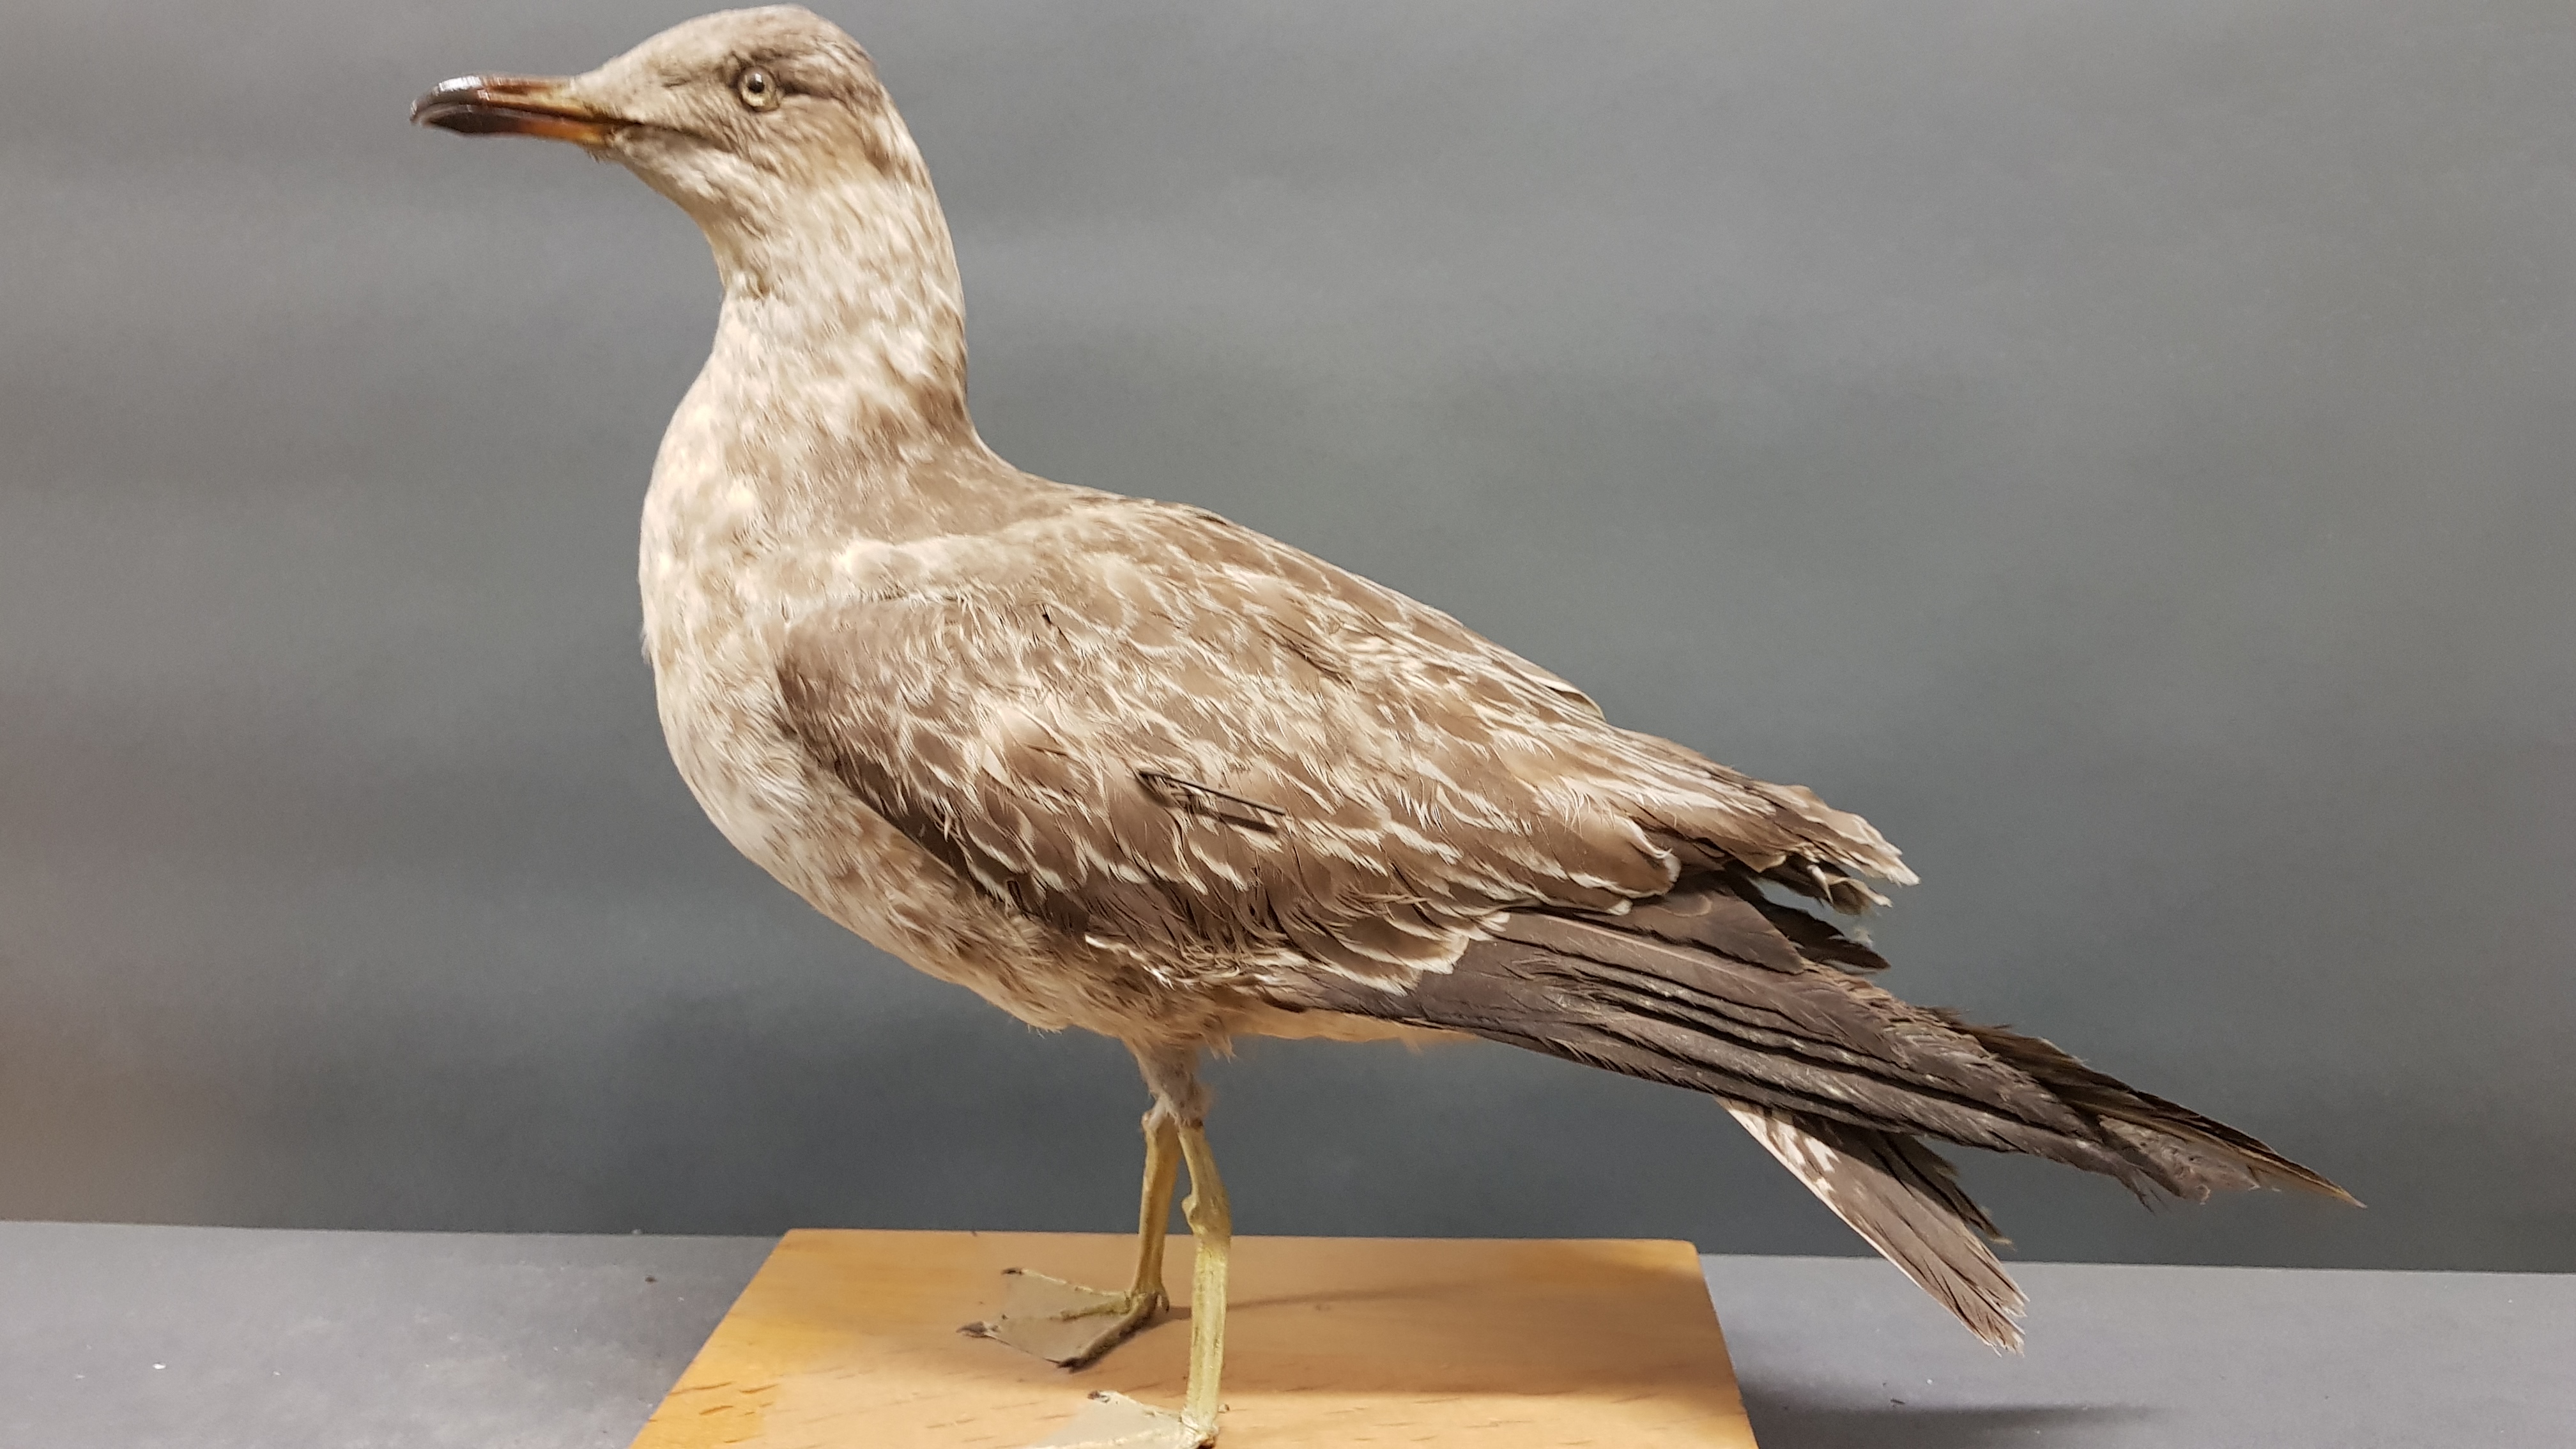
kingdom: Animalia
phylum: Chordata
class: Aves
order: Charadriiformes
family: Laridae
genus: Larus
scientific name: Larus fuscus
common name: Lesser black-backed gull
